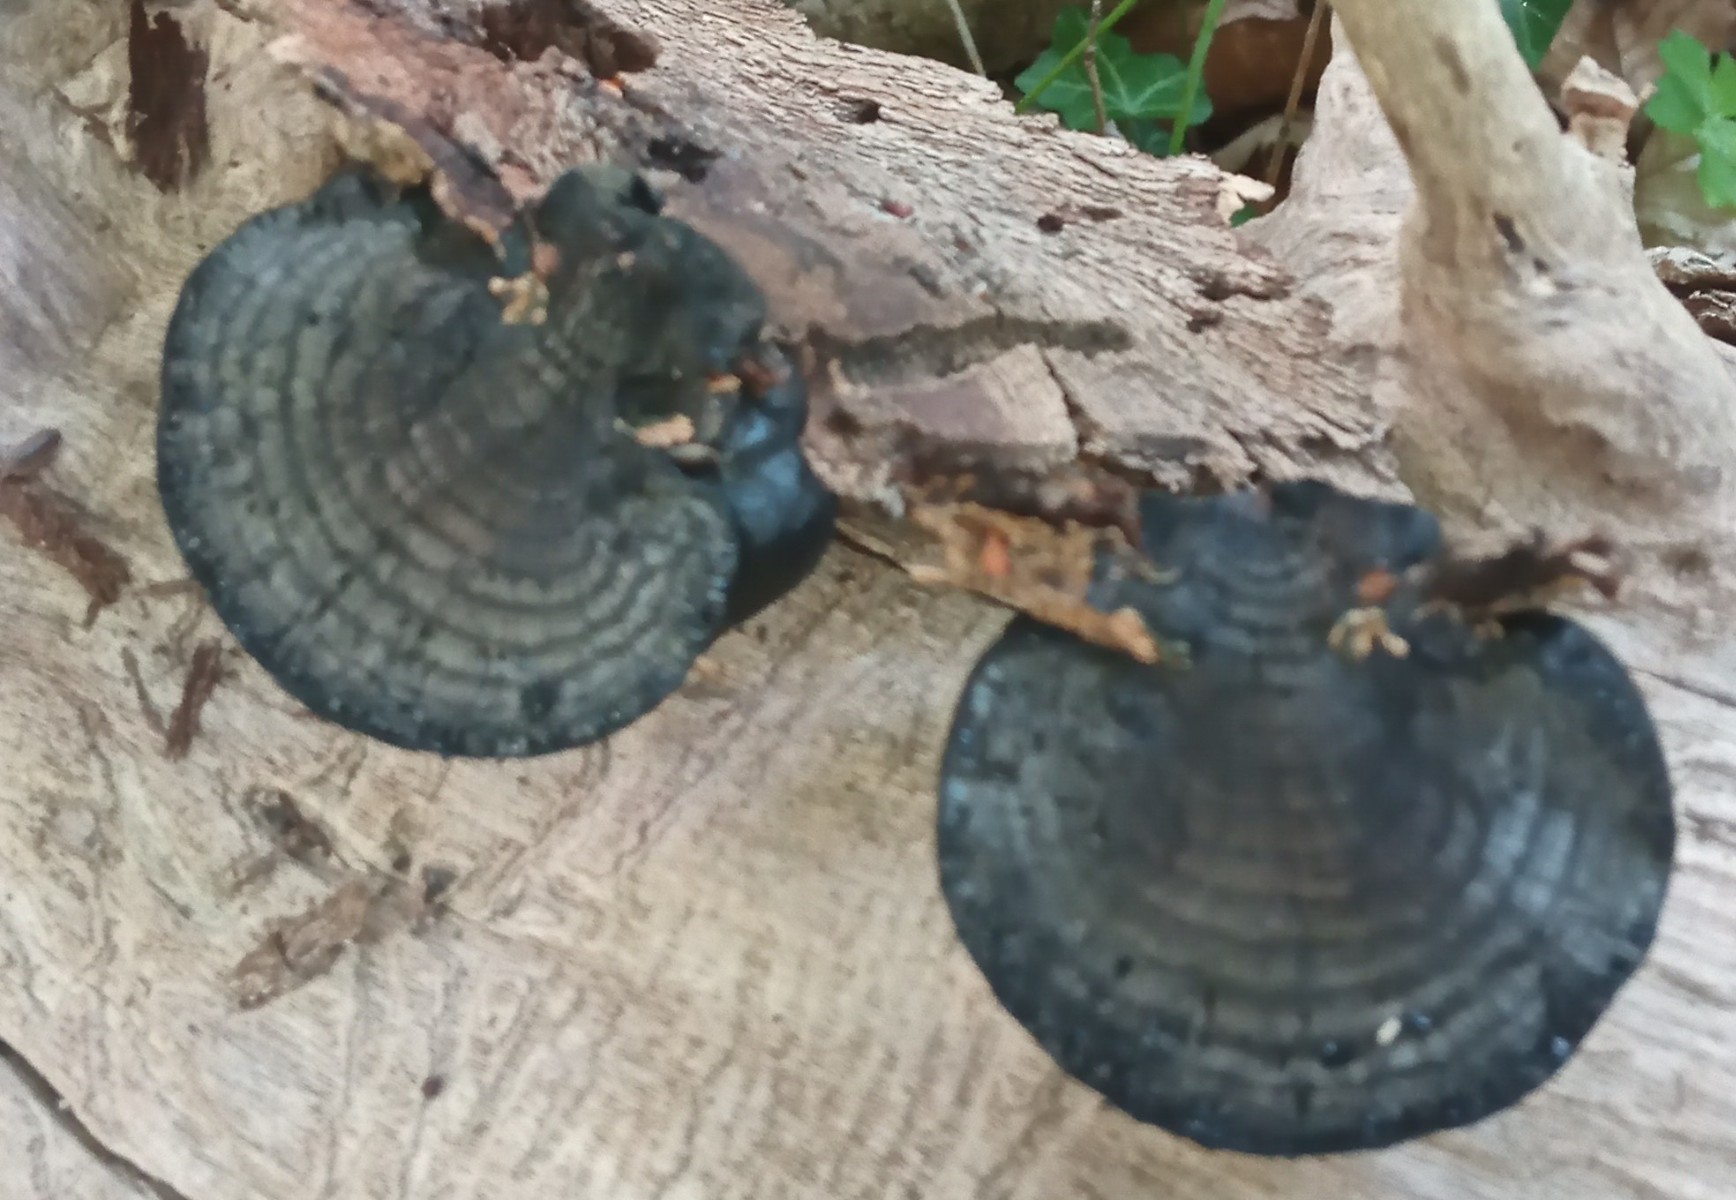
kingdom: Fungi
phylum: Ascomycota
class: Sordariomycetes
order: Xylariales
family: Hypoxylaceae
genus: Daldinia
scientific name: Daldinia concentrica
